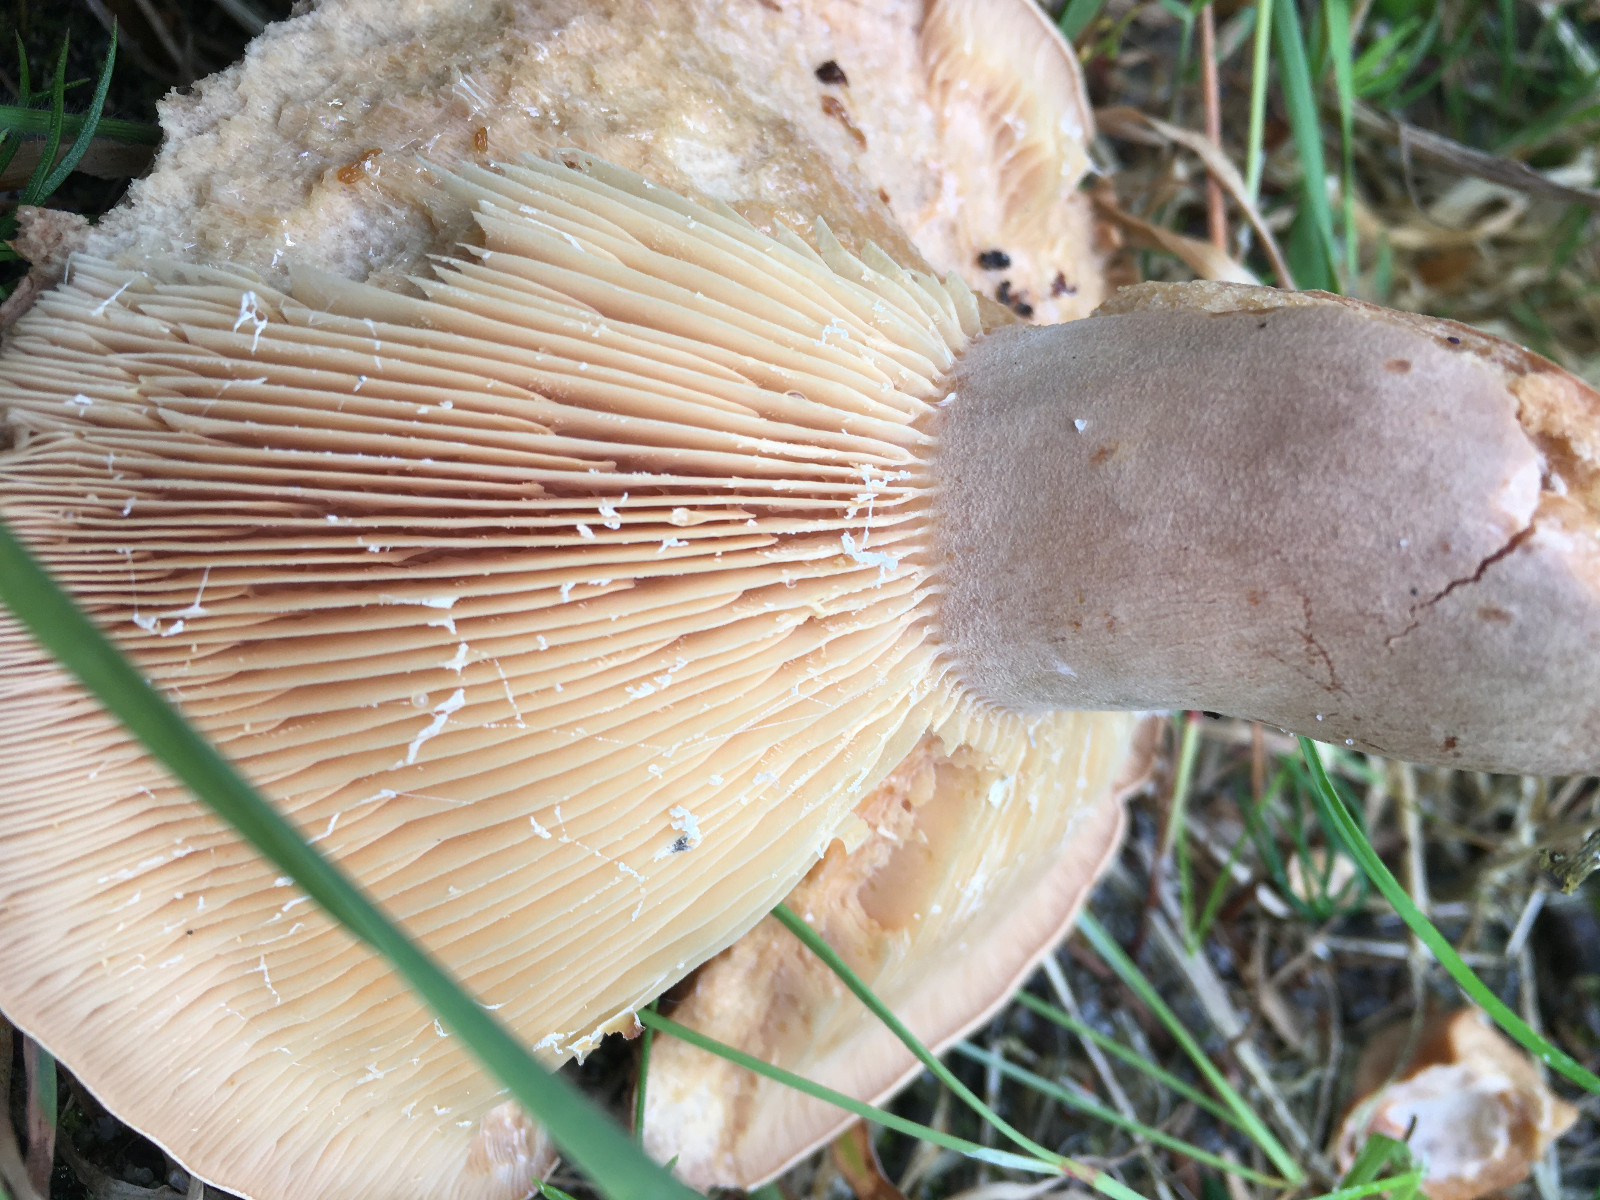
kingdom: Fungi
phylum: Basidiomycota
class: Agaricomycetes
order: Russulales
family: Russulaceae
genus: Lactarius
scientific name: Lactarius helvus
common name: mose-mælkehat
